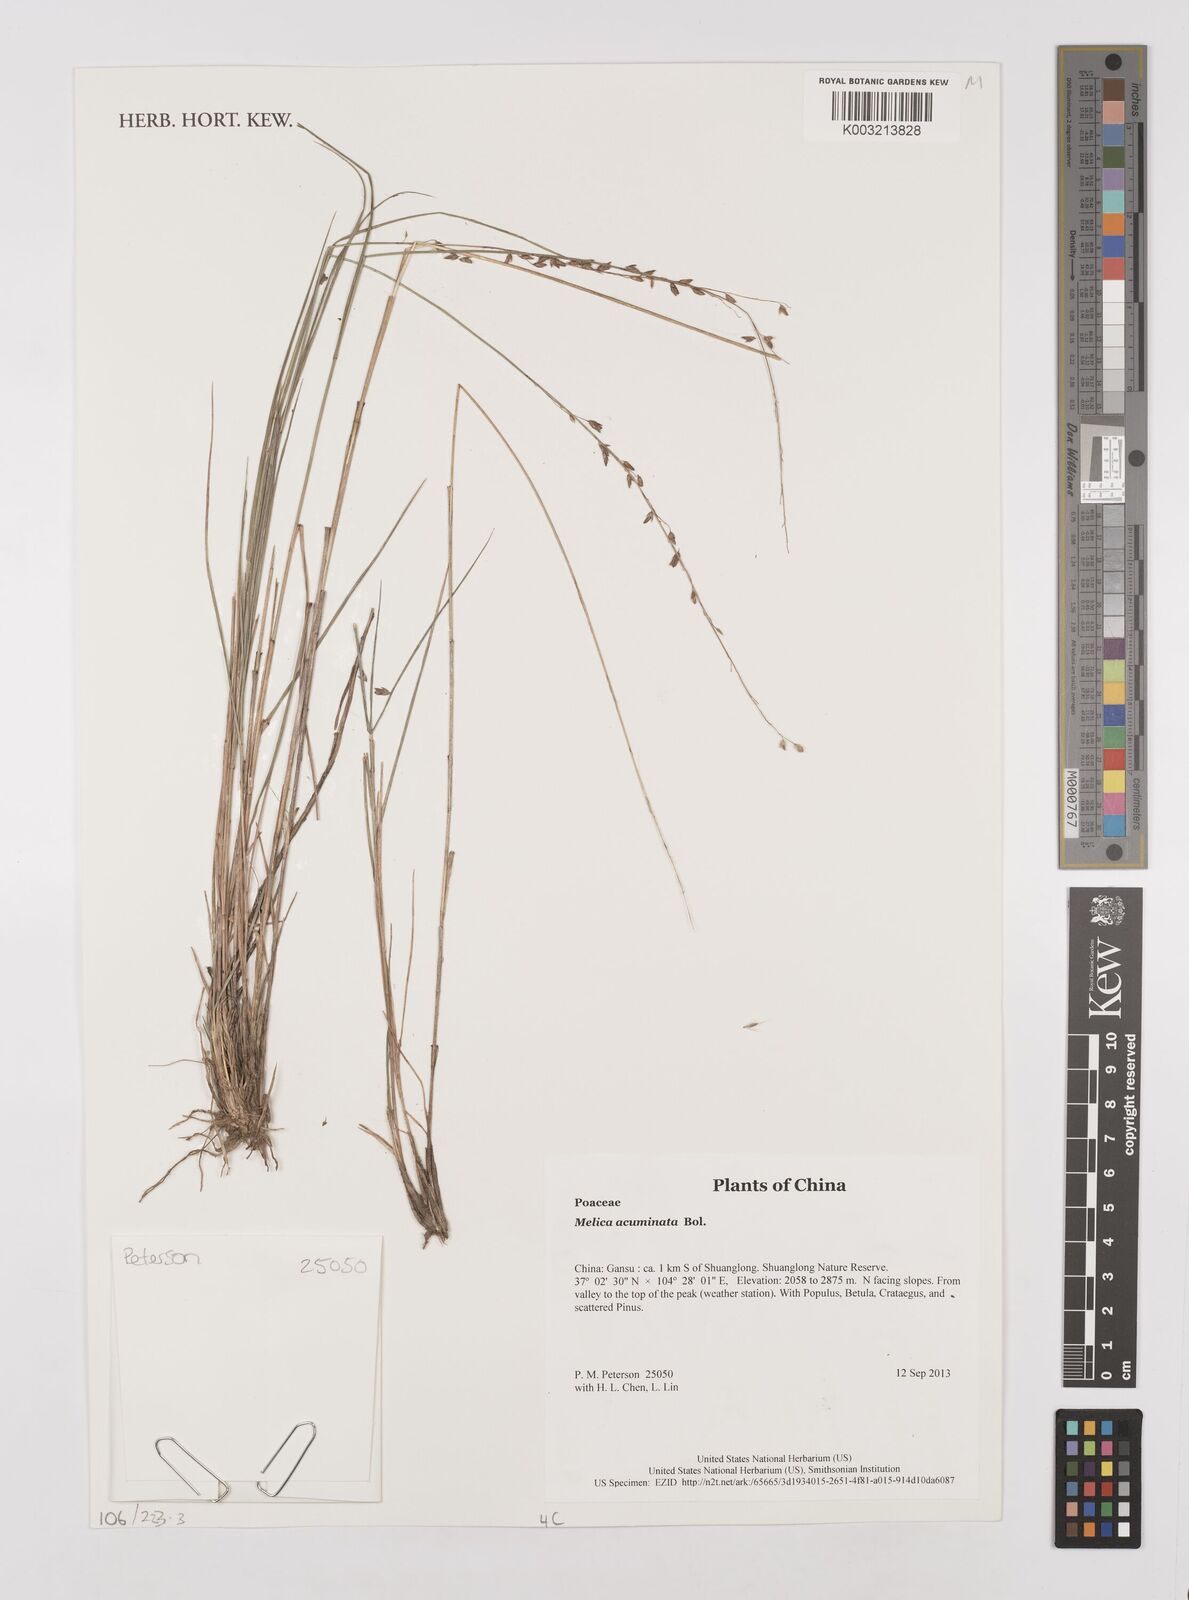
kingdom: Plantae
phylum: Tracheophyta
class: Liliopsida
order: Poales
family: Poaceae
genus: Melica
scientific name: Melica subulata
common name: Tapered oniongrass
